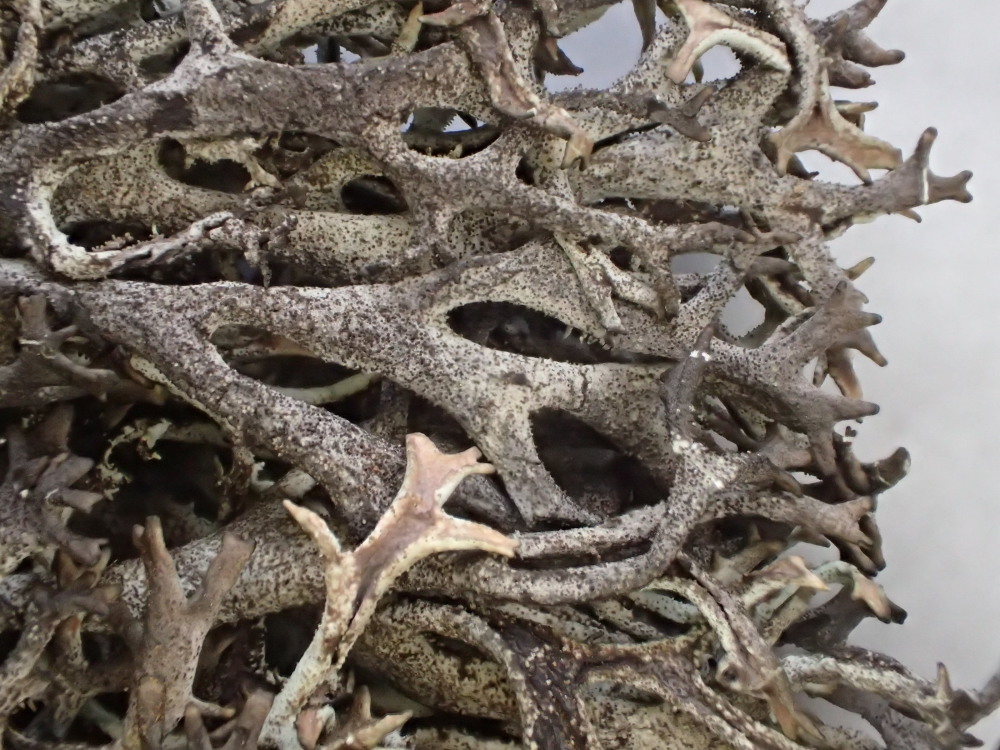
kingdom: Fungi
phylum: Ascomycota
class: Lecanoromycetes
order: Lecanorales
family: Parmeliaceae
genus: Pseudevernia
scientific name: Pseudevernia furfuracea
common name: grå fyrrelav
